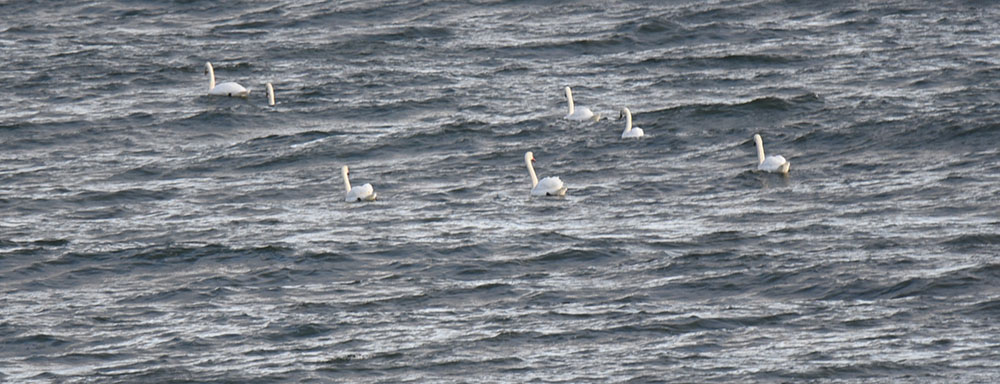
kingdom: Animalia
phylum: Chordata
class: Aves
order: Anseriformes
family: Anatidae
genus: Cygnus
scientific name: Cygnus olor
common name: Mute swan
